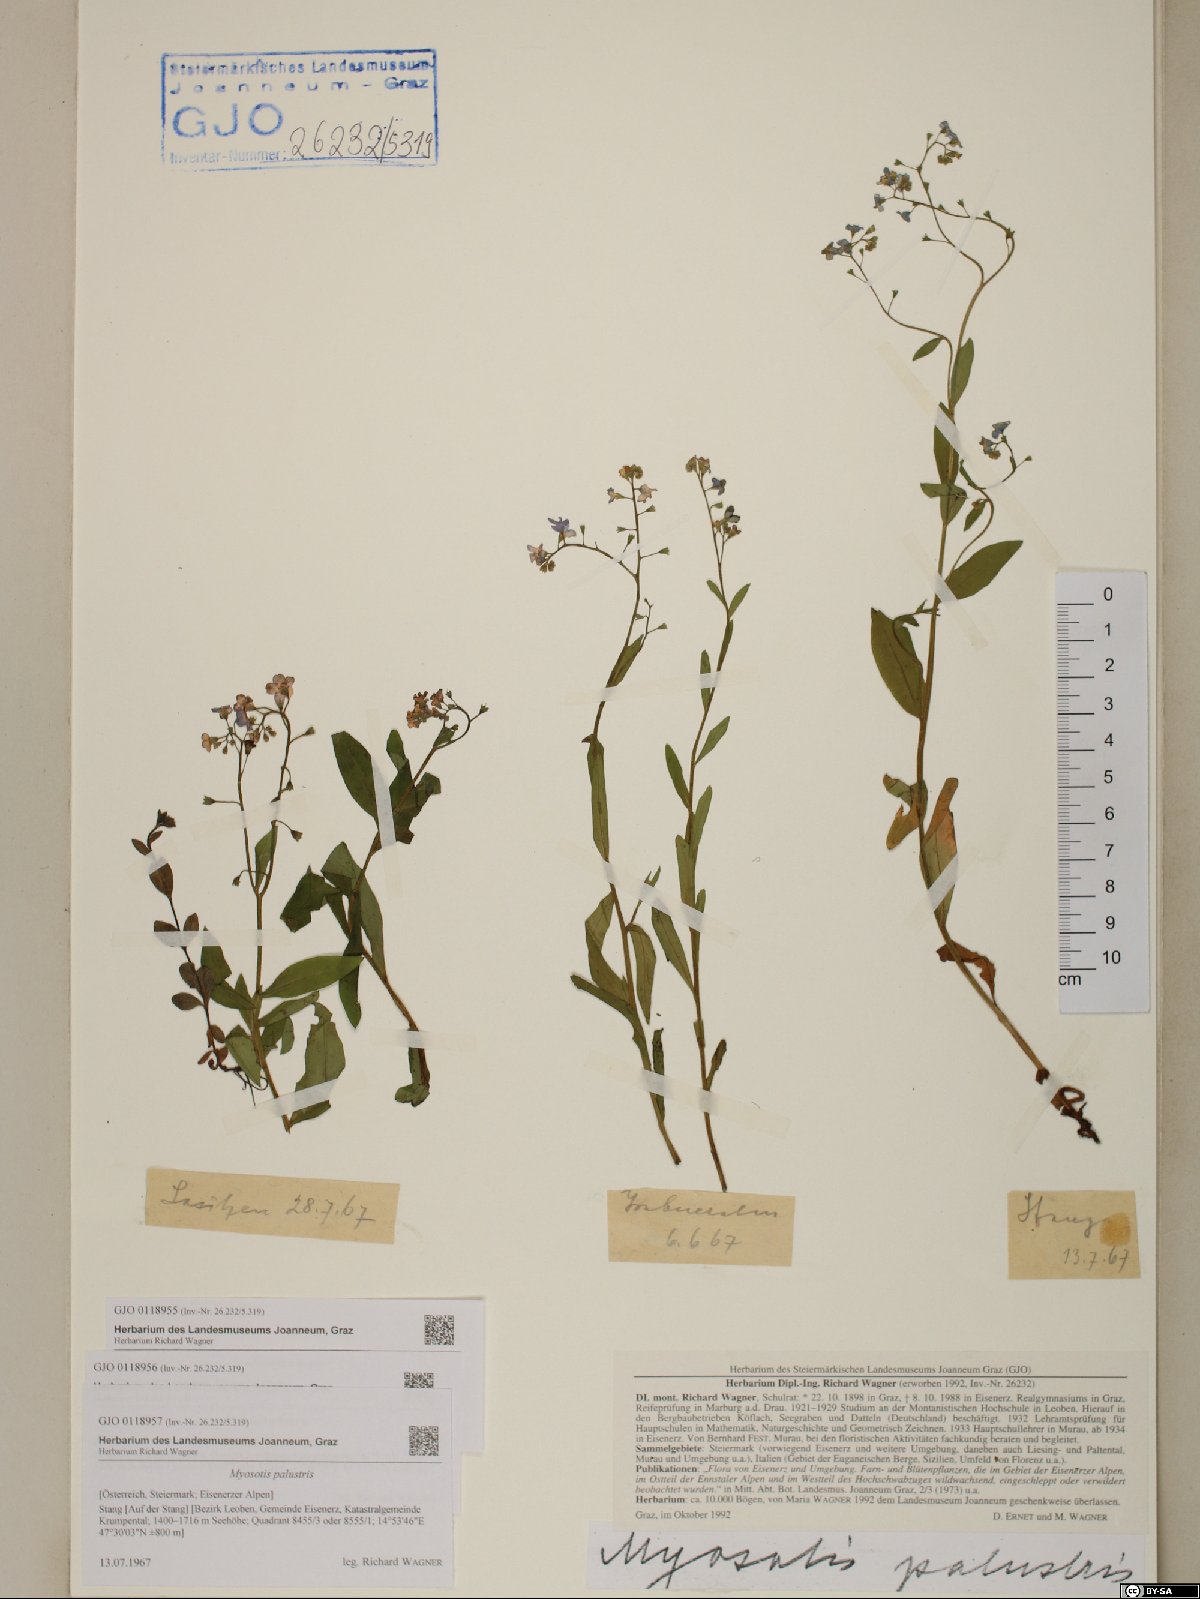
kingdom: Plantae
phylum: Tracheophyta
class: Magnoliopsida
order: Boraginales
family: Boraginaceae
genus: Myosotis
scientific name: Myosotis scorpioides
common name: Water forget-me-not
